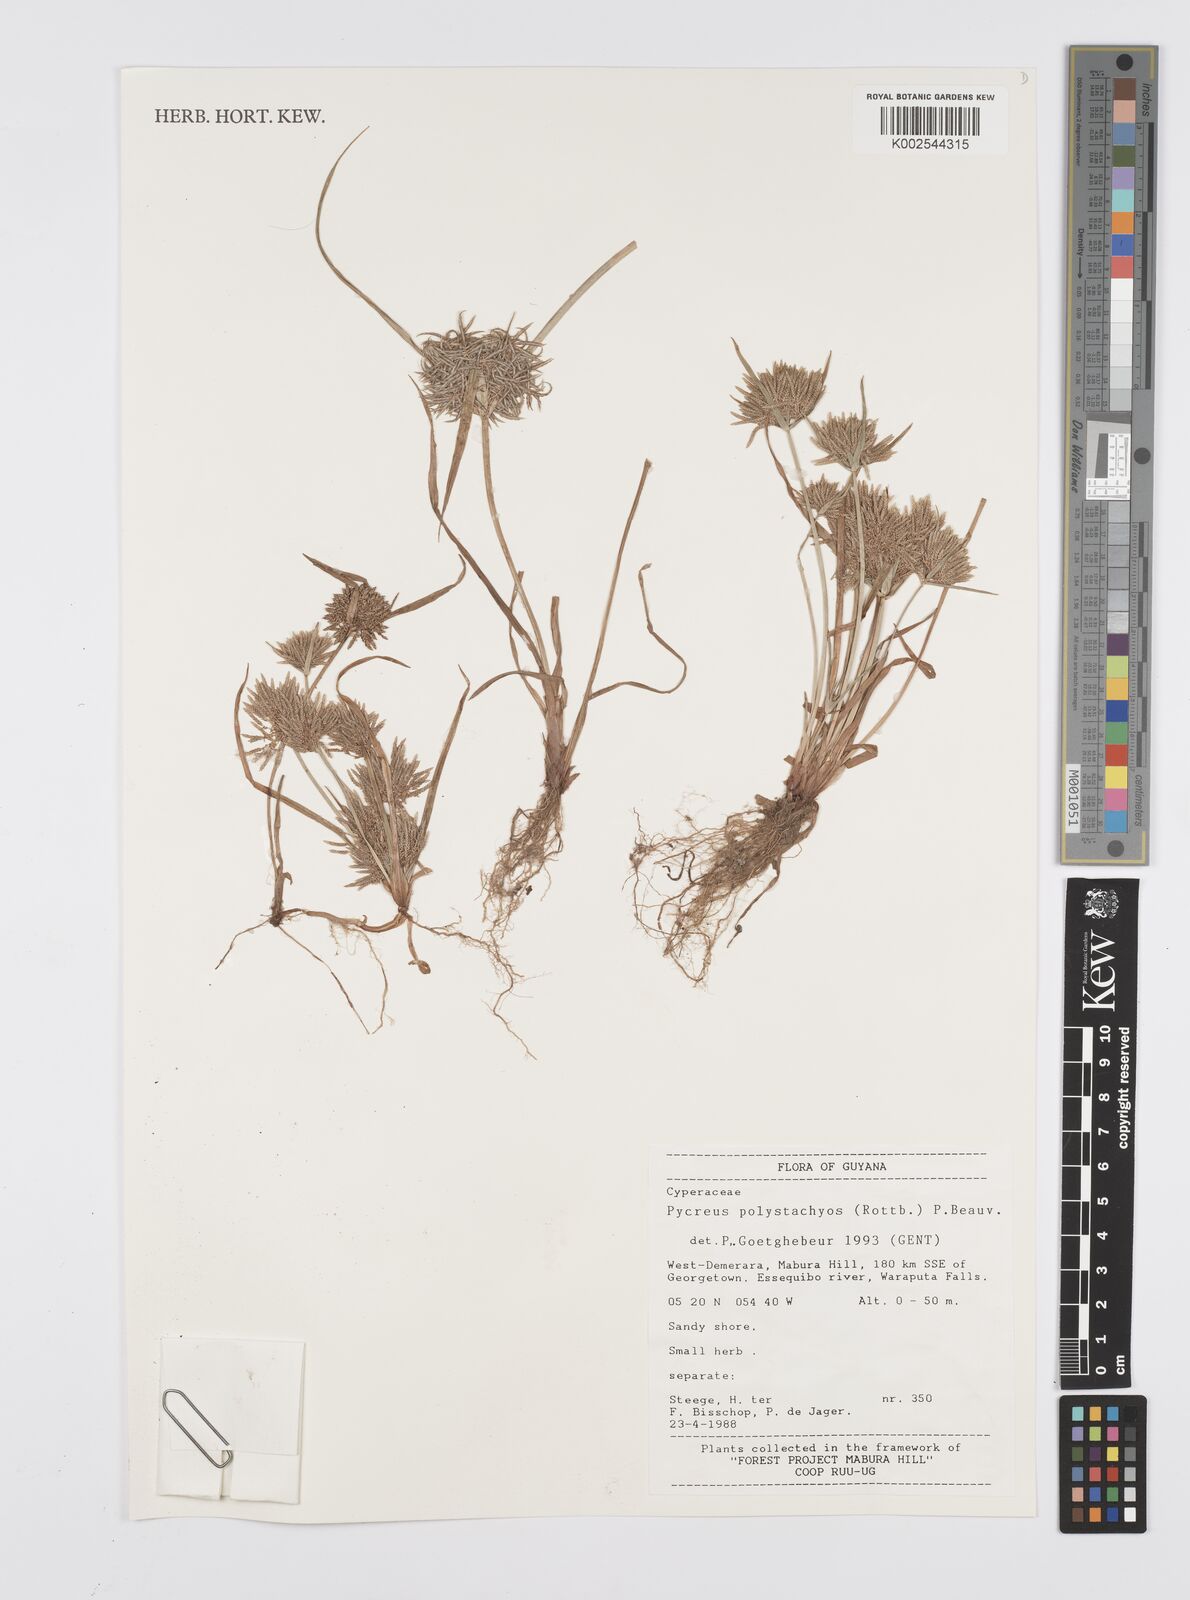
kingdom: Plantae
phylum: Tracheophyta
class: Liliopsida
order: Poales
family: Cyperaceae
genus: Cyperus
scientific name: Cyperus polystachyos
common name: Bunchy flat sedge
